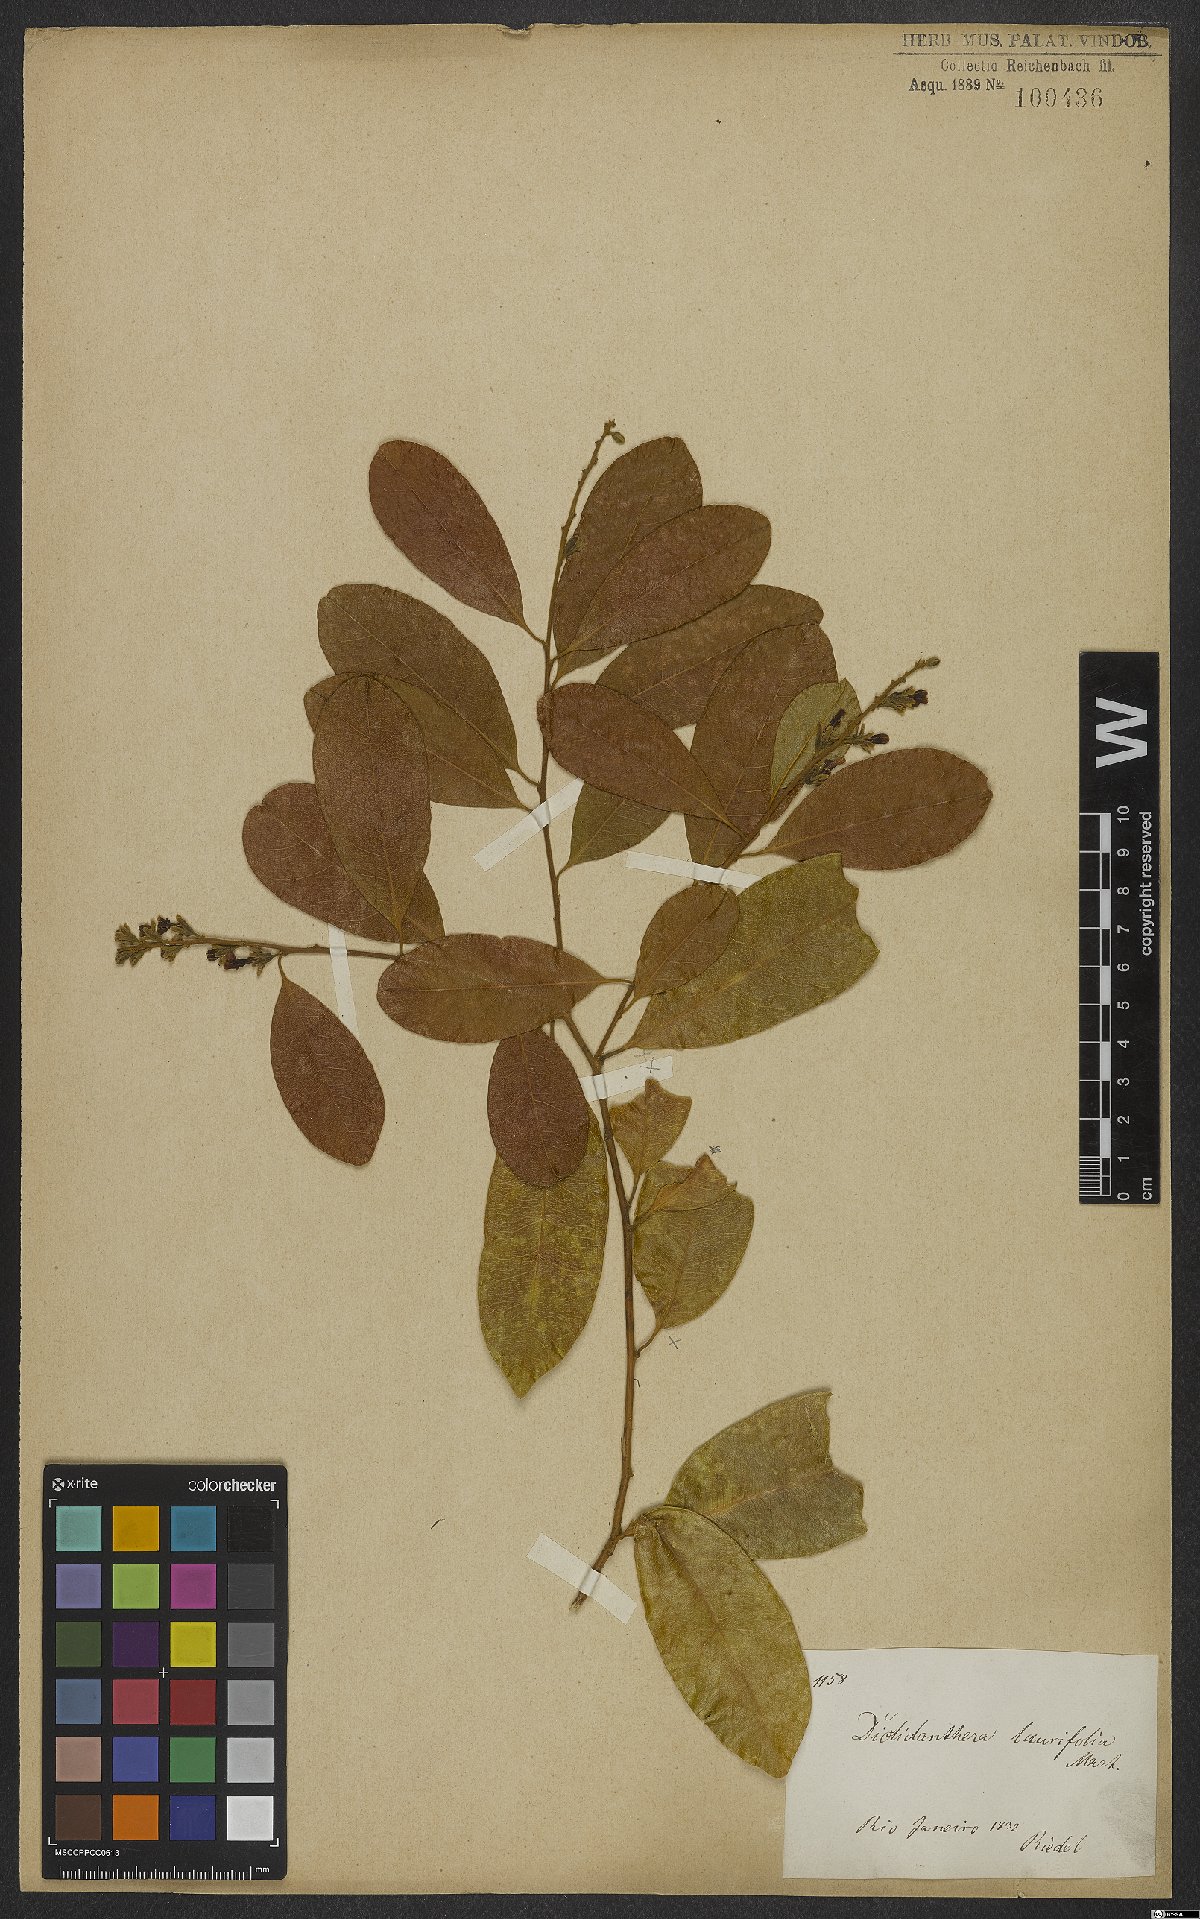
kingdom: Plantae
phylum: Tracheophyta
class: Magnoliopsida
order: Fabales
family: Polygalaceae
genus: Diclidanthera
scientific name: Diclidanthera laurifolia
